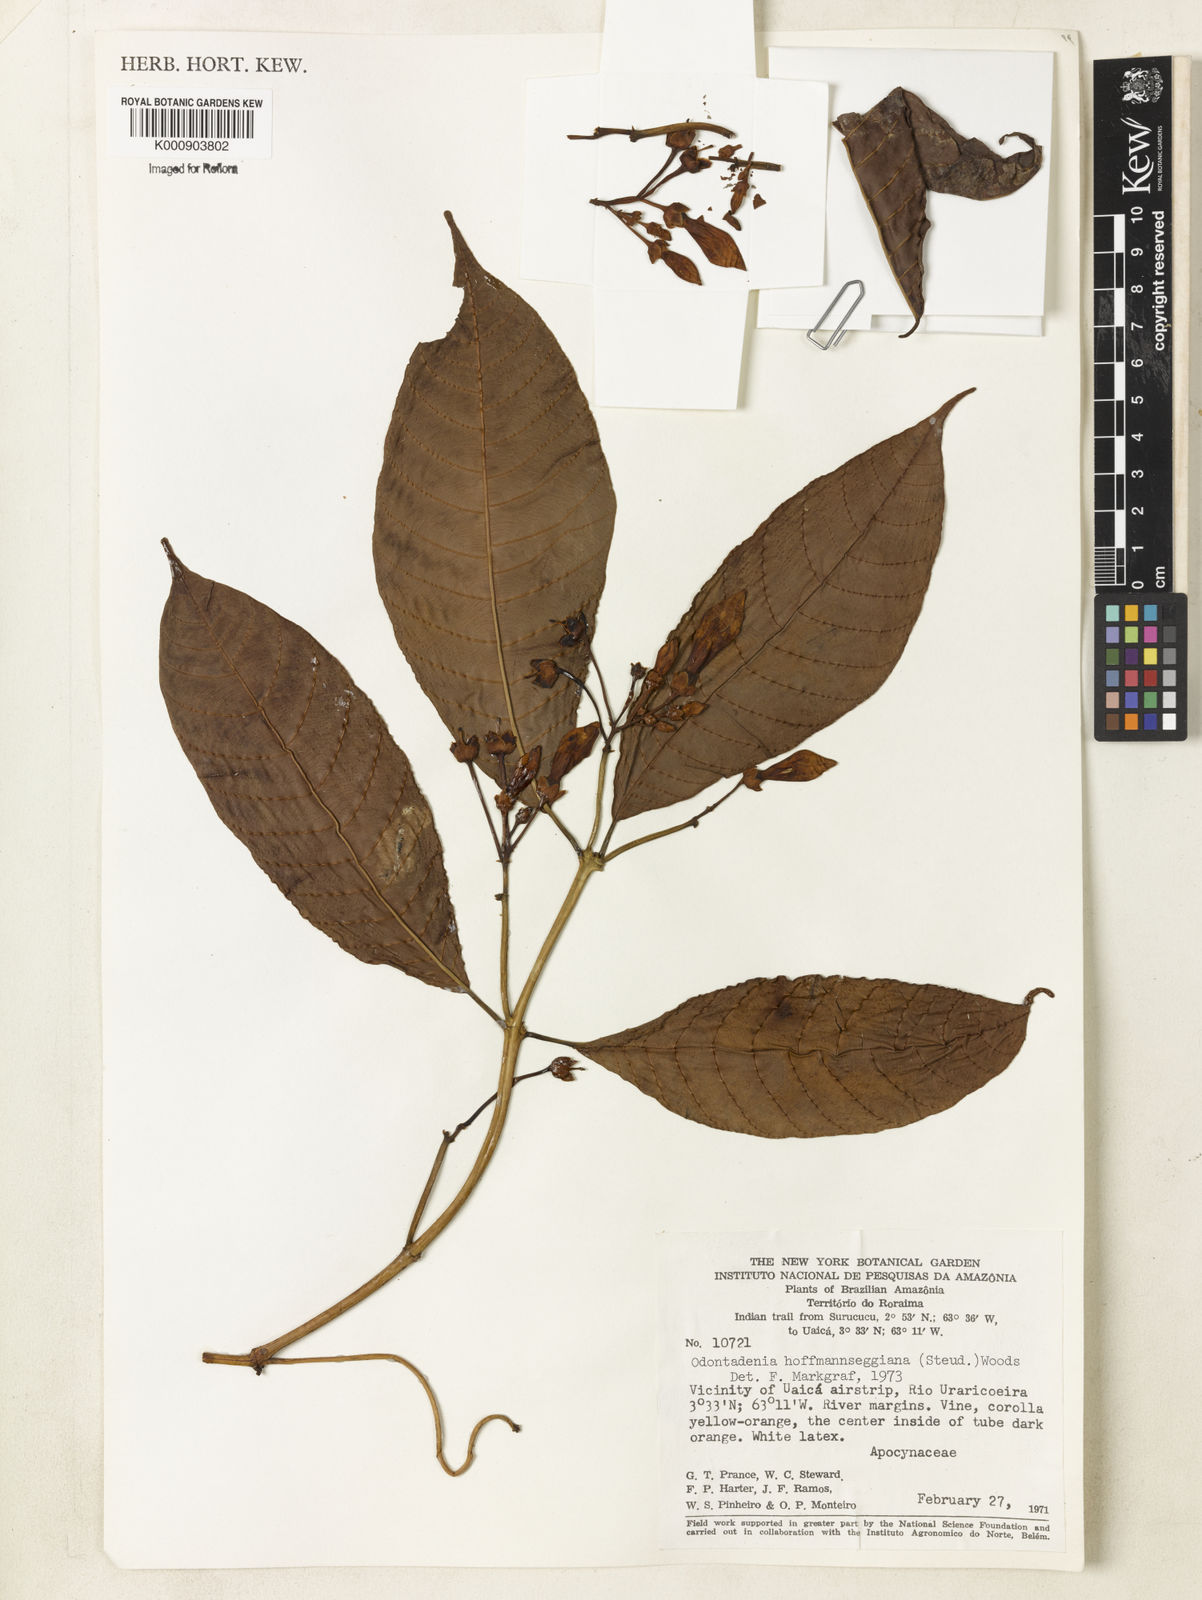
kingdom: Plantae
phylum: Tracheophyta
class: Magnoliopsida
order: Gentianales
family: Apocynaceae
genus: Odontadenia
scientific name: Odontadenia semidigyna
